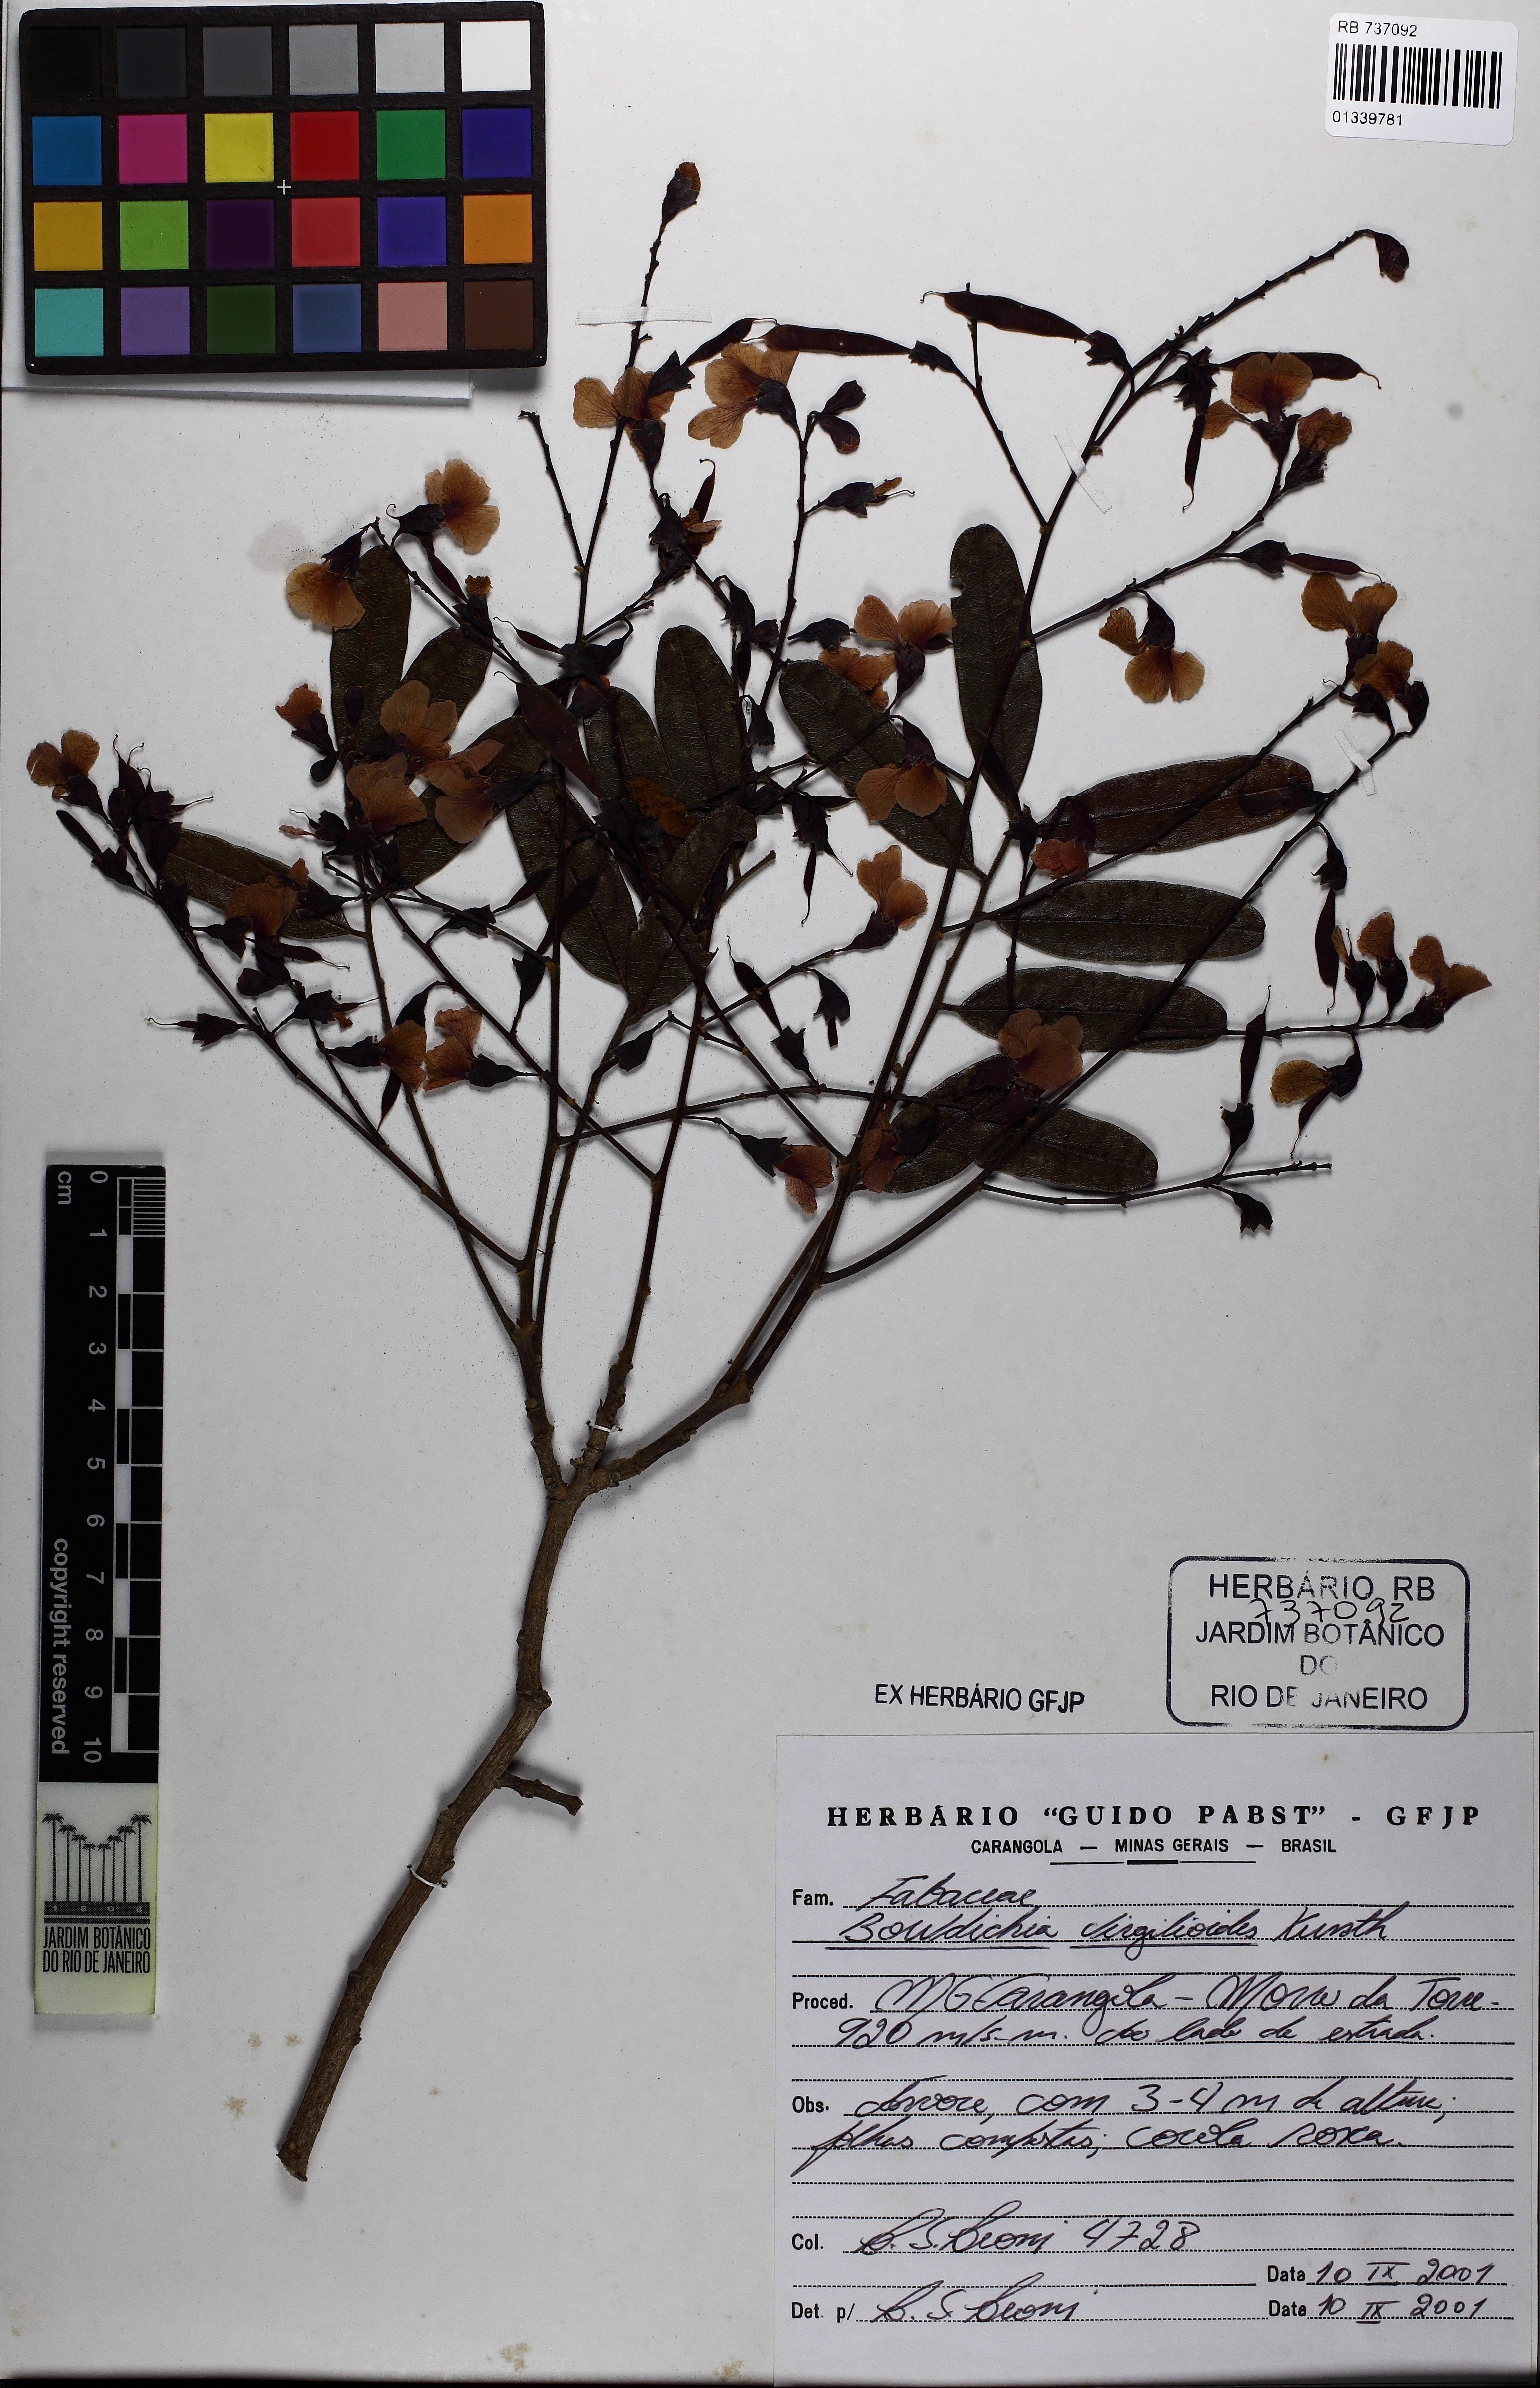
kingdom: Plantae
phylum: Tracheophyta
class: Magnoliopsida
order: Fabales
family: Fabaceae
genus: Bowdichia
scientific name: Bowdichia virgilioides
